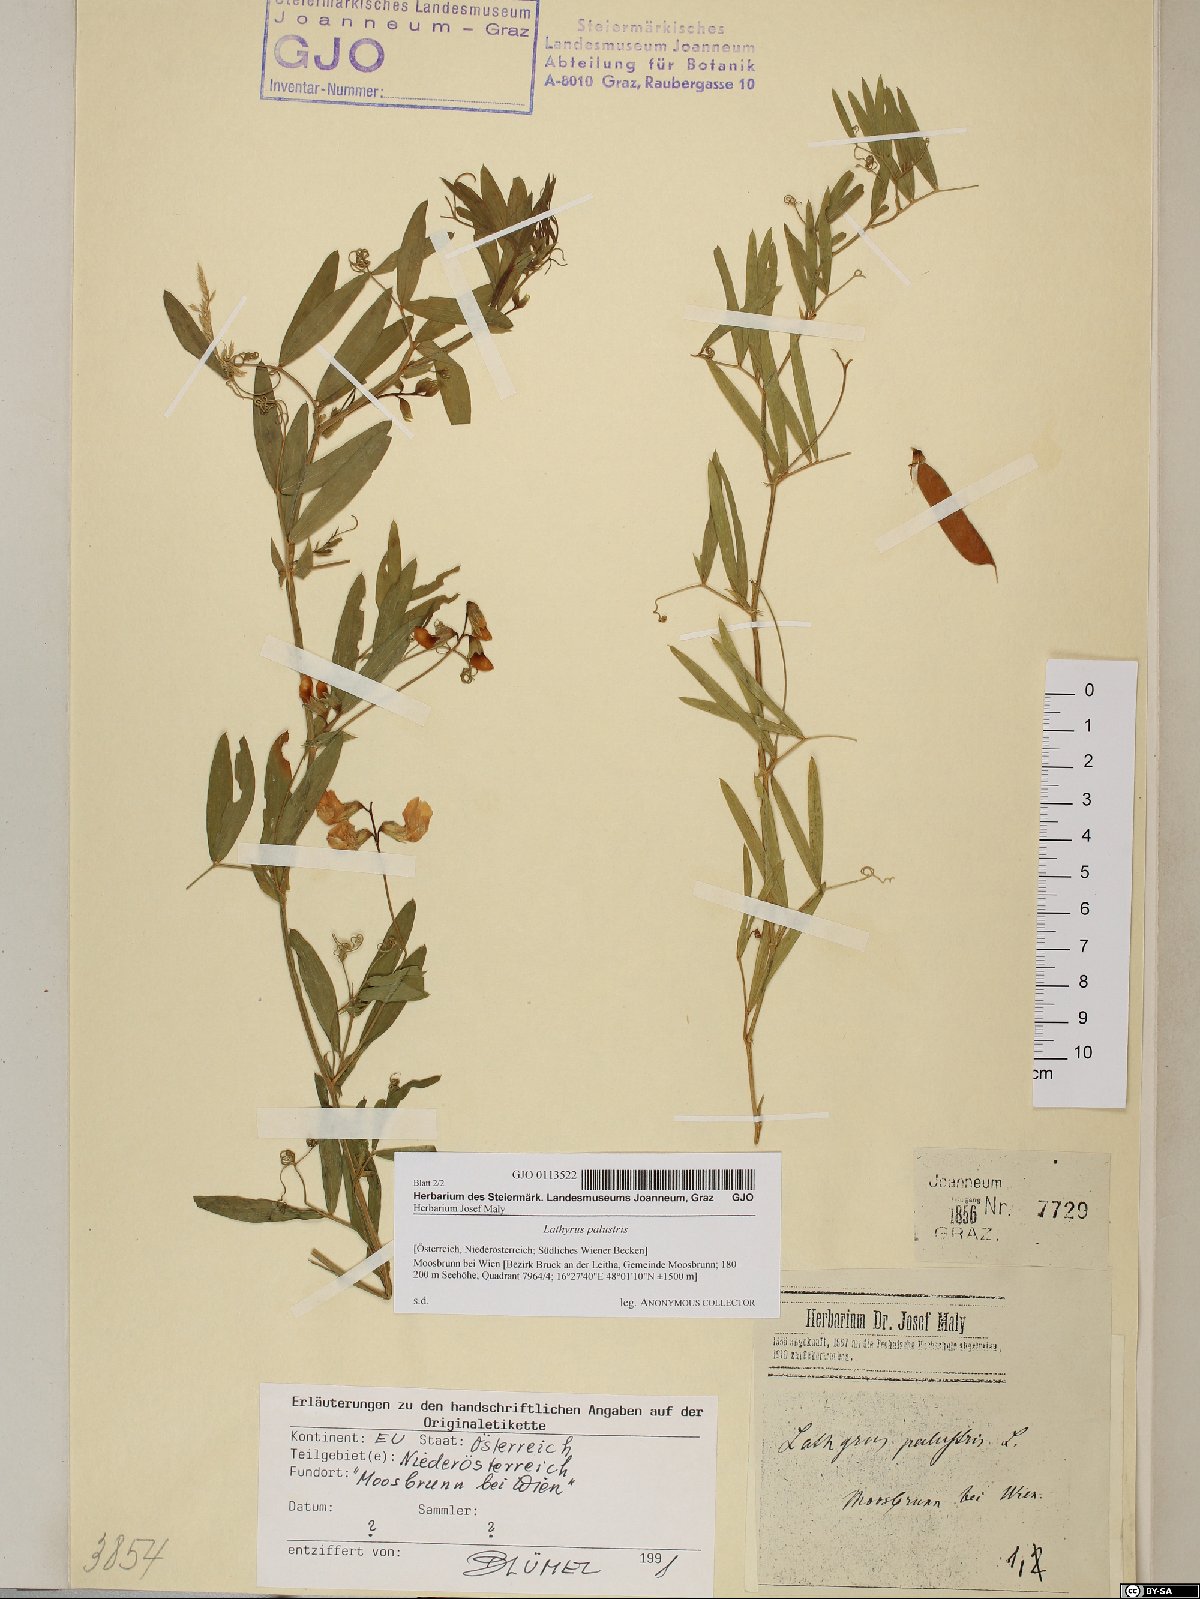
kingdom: Plantae
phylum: Tracheophyta
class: Magnoliopsida
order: Fabales
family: Fabaceae
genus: Lathyrus
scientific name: Lathyrus palustris
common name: Marsh pea
